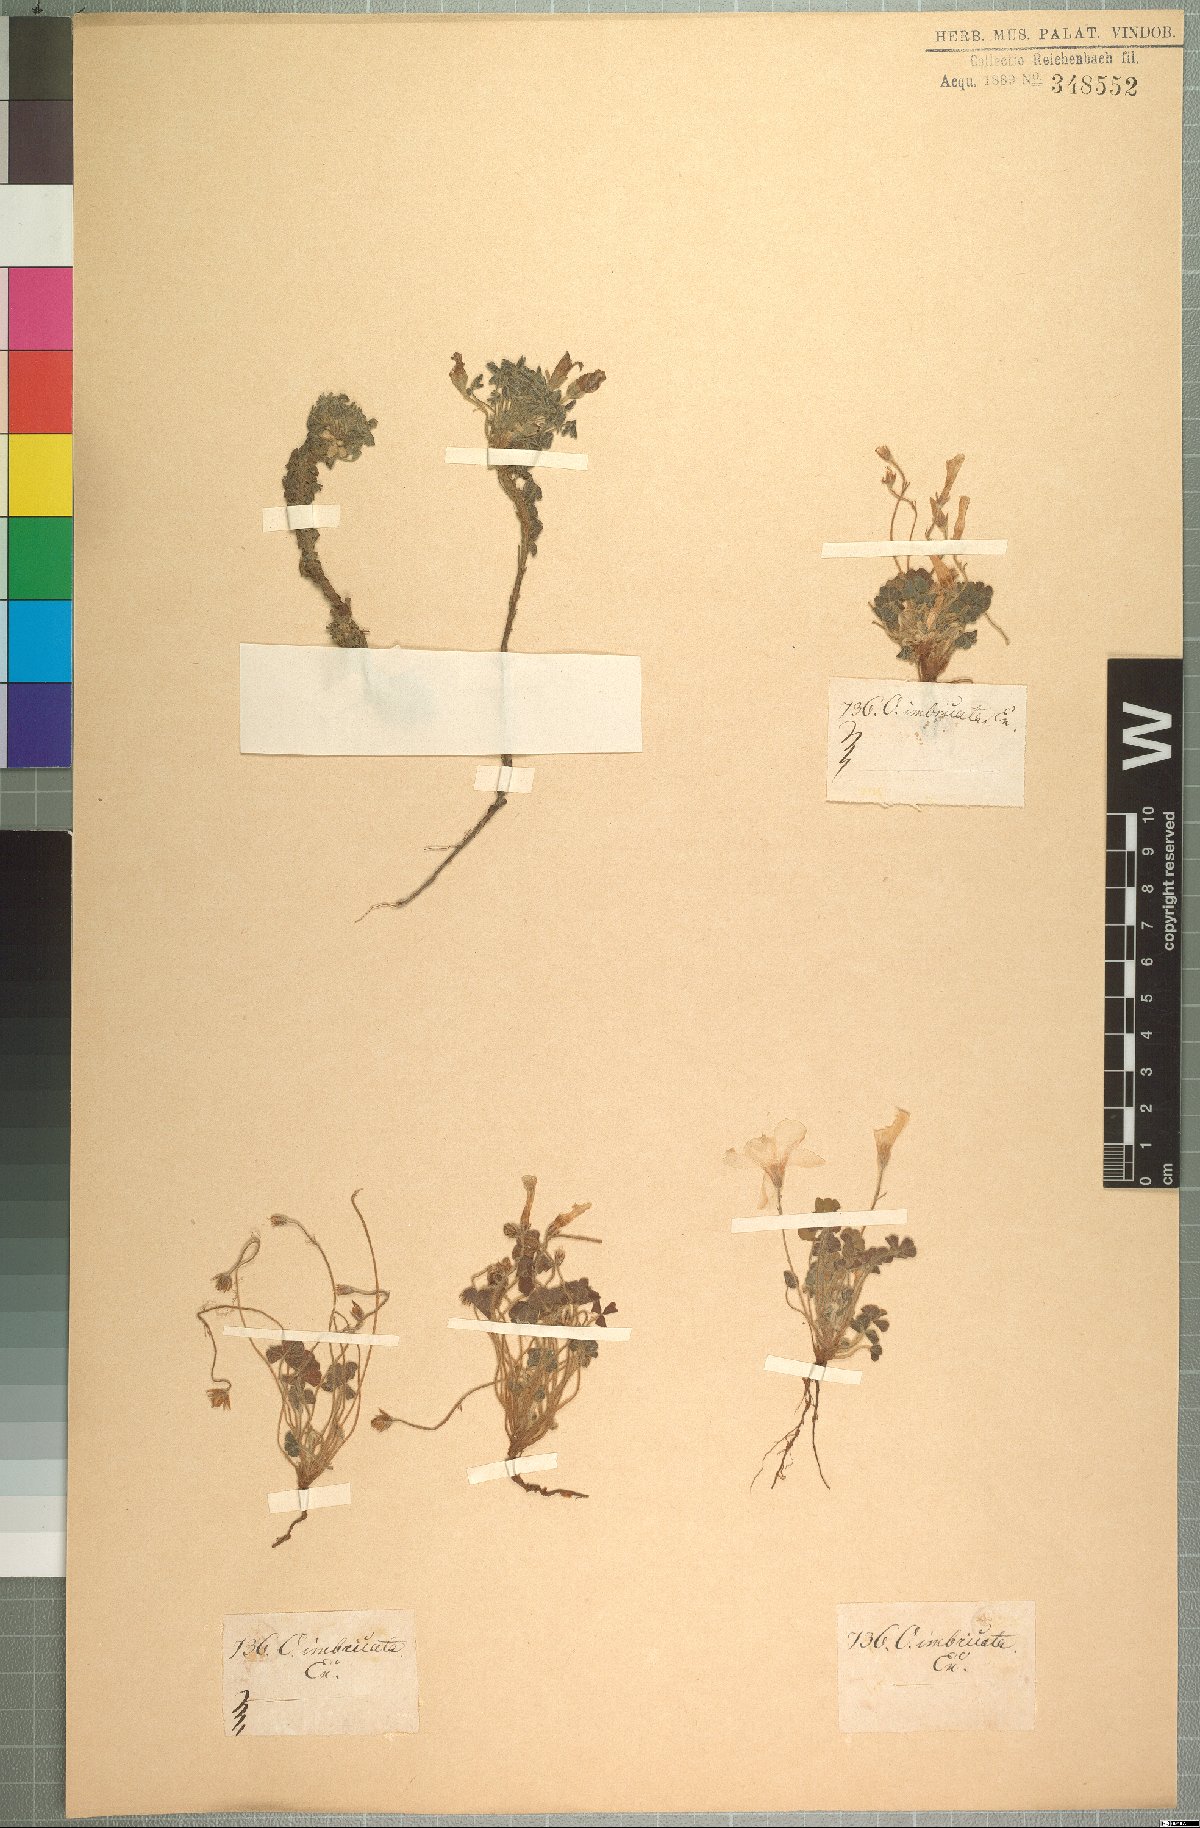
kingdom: Plantae
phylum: Tracheophyta
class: Magnoliopsida
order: Oxalidales
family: Oxalidaceae
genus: Oxalis
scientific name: Oxalis imbricata
